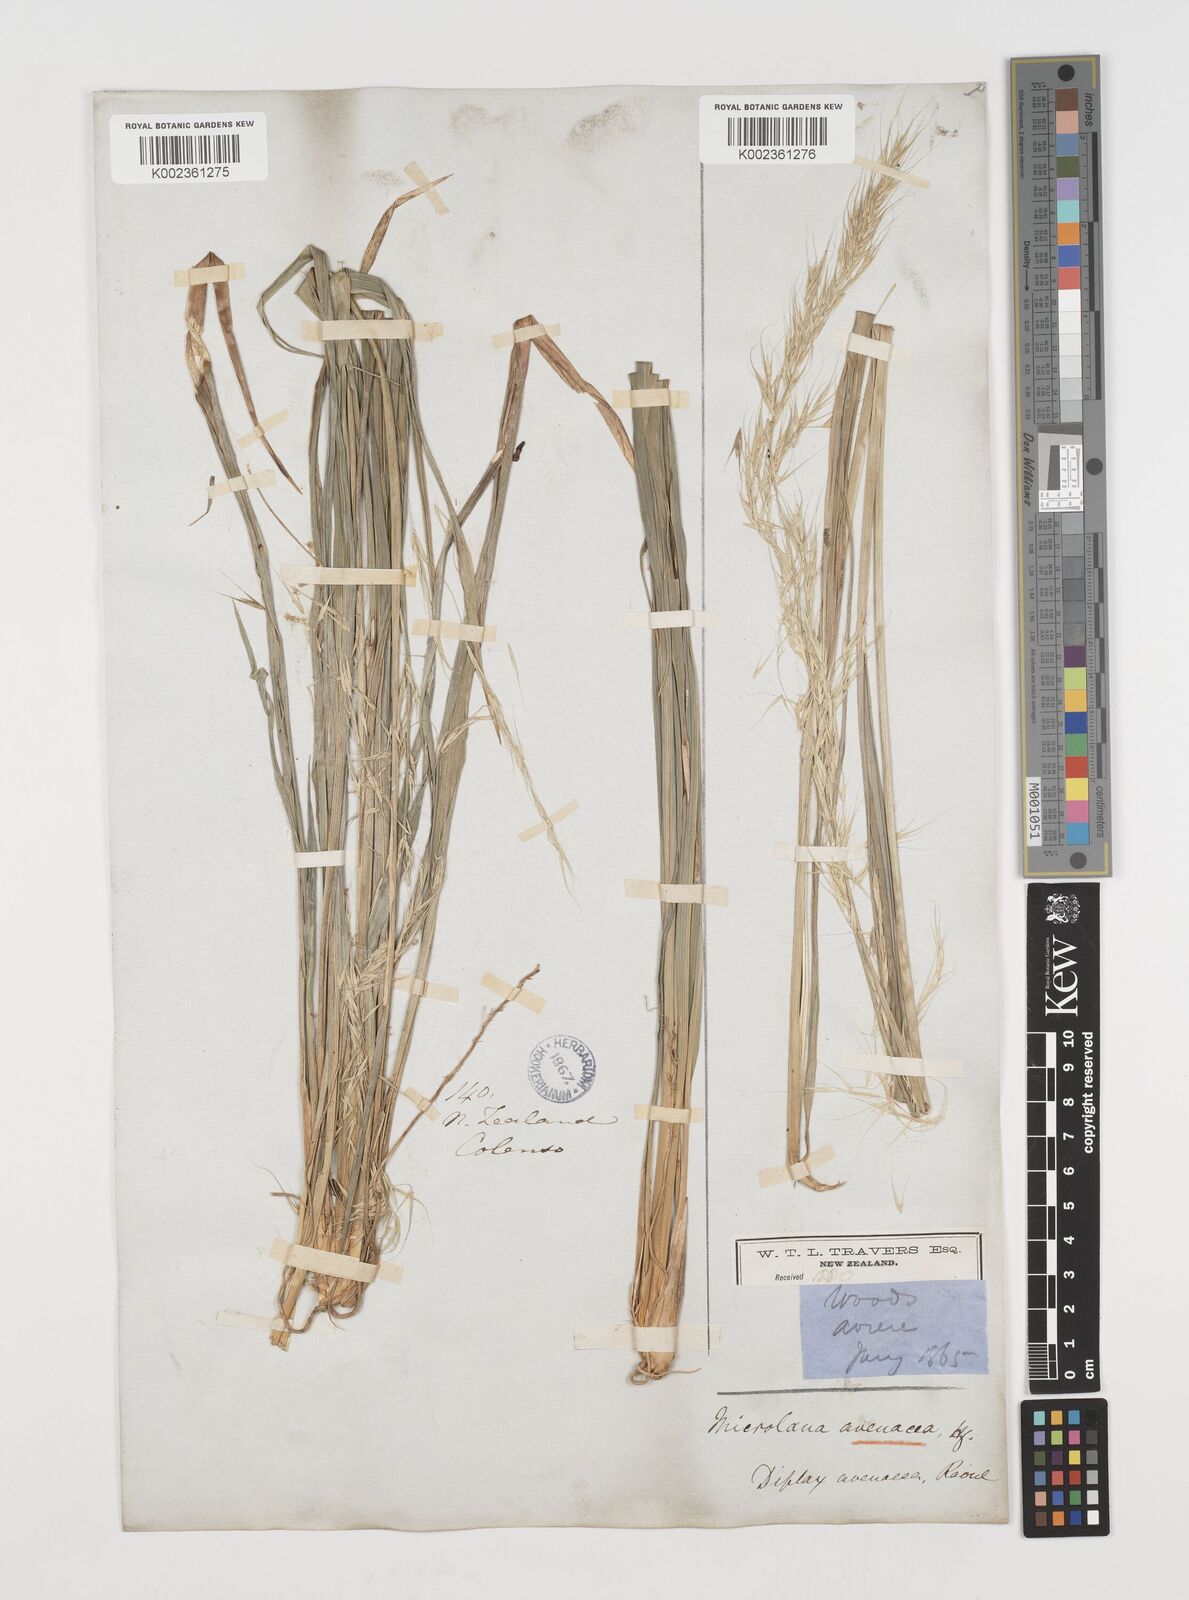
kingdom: Plantae
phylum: Tracheophyta
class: Liliopsida
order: Poales
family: Poaceae
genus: Ehrharta
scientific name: Ehrharta diplax
